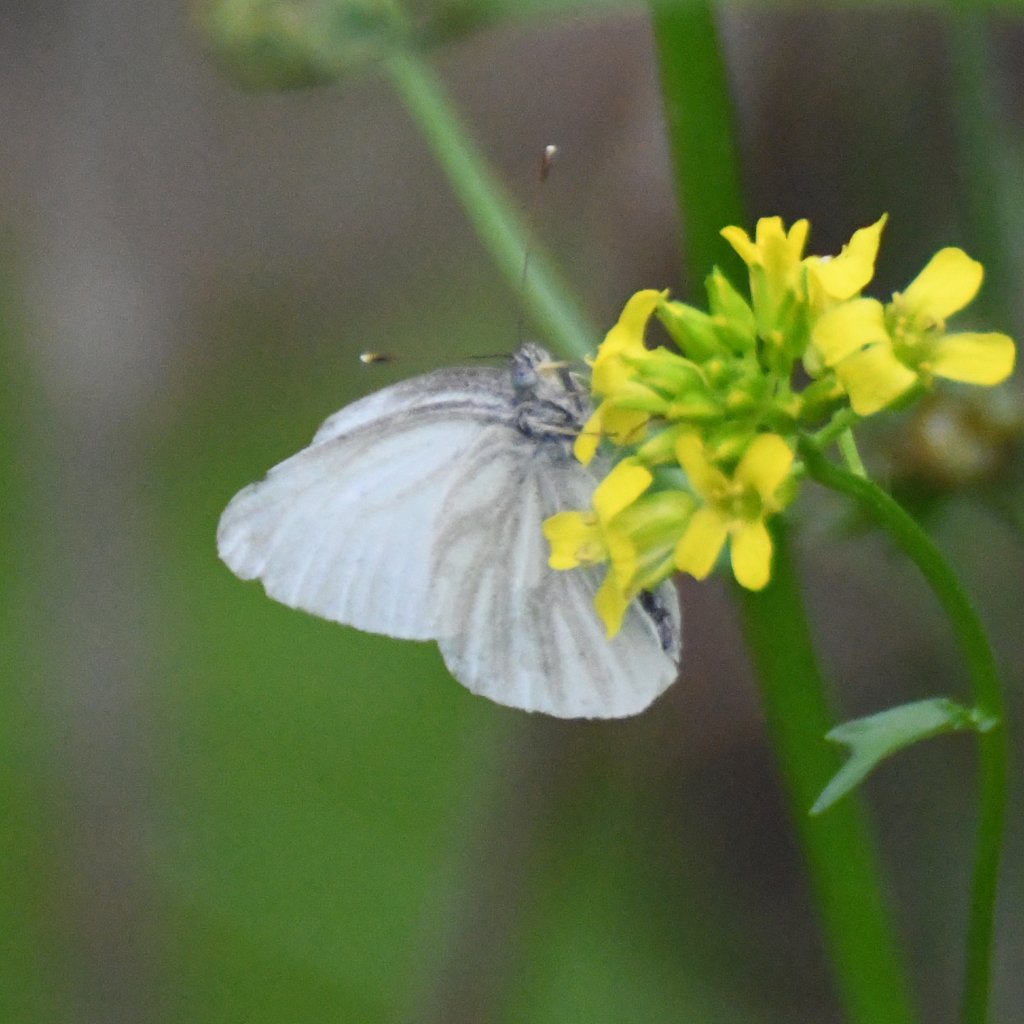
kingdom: Animalia
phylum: Arthropoda
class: Insecta
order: Lepidoptera
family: Pieridae
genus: Pieris
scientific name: Pieris virginiensis
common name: West Virginia White
